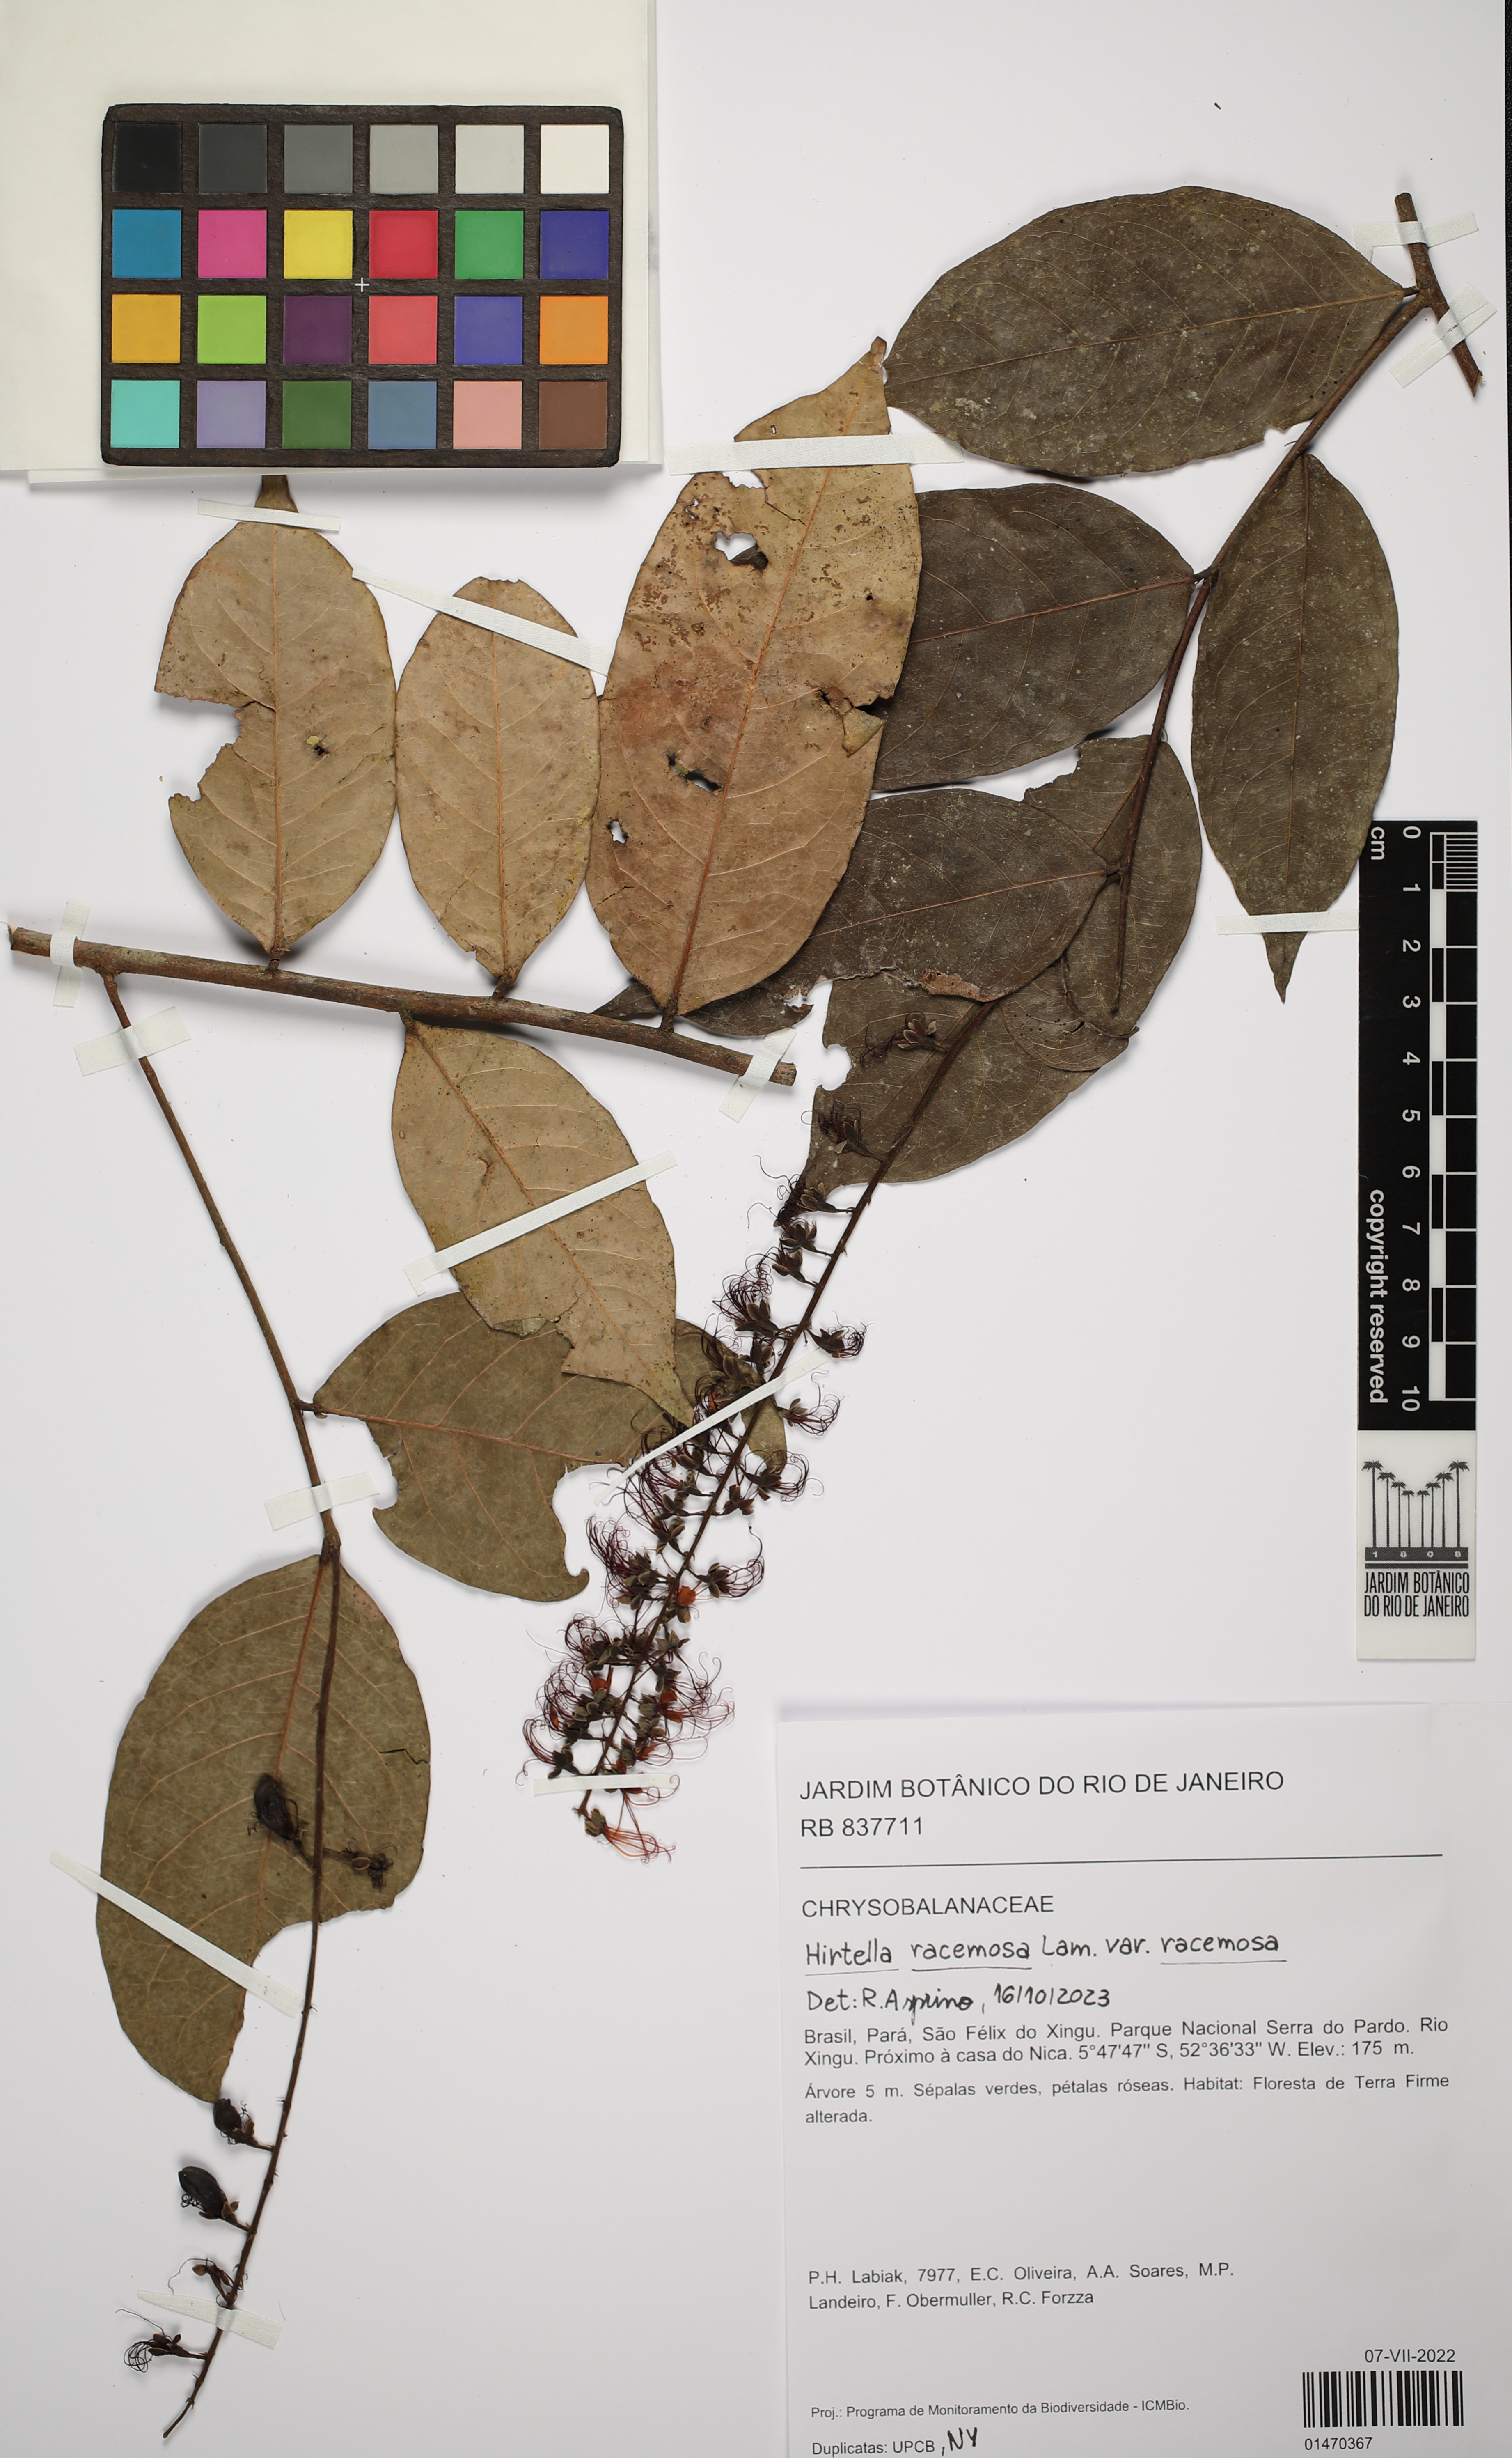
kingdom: Plantae
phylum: Tracheophyta
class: Magnoliopsida
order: Malpighiales
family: Chrysobalanaceae
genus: Hirtella
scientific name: Hirtella racemosa
